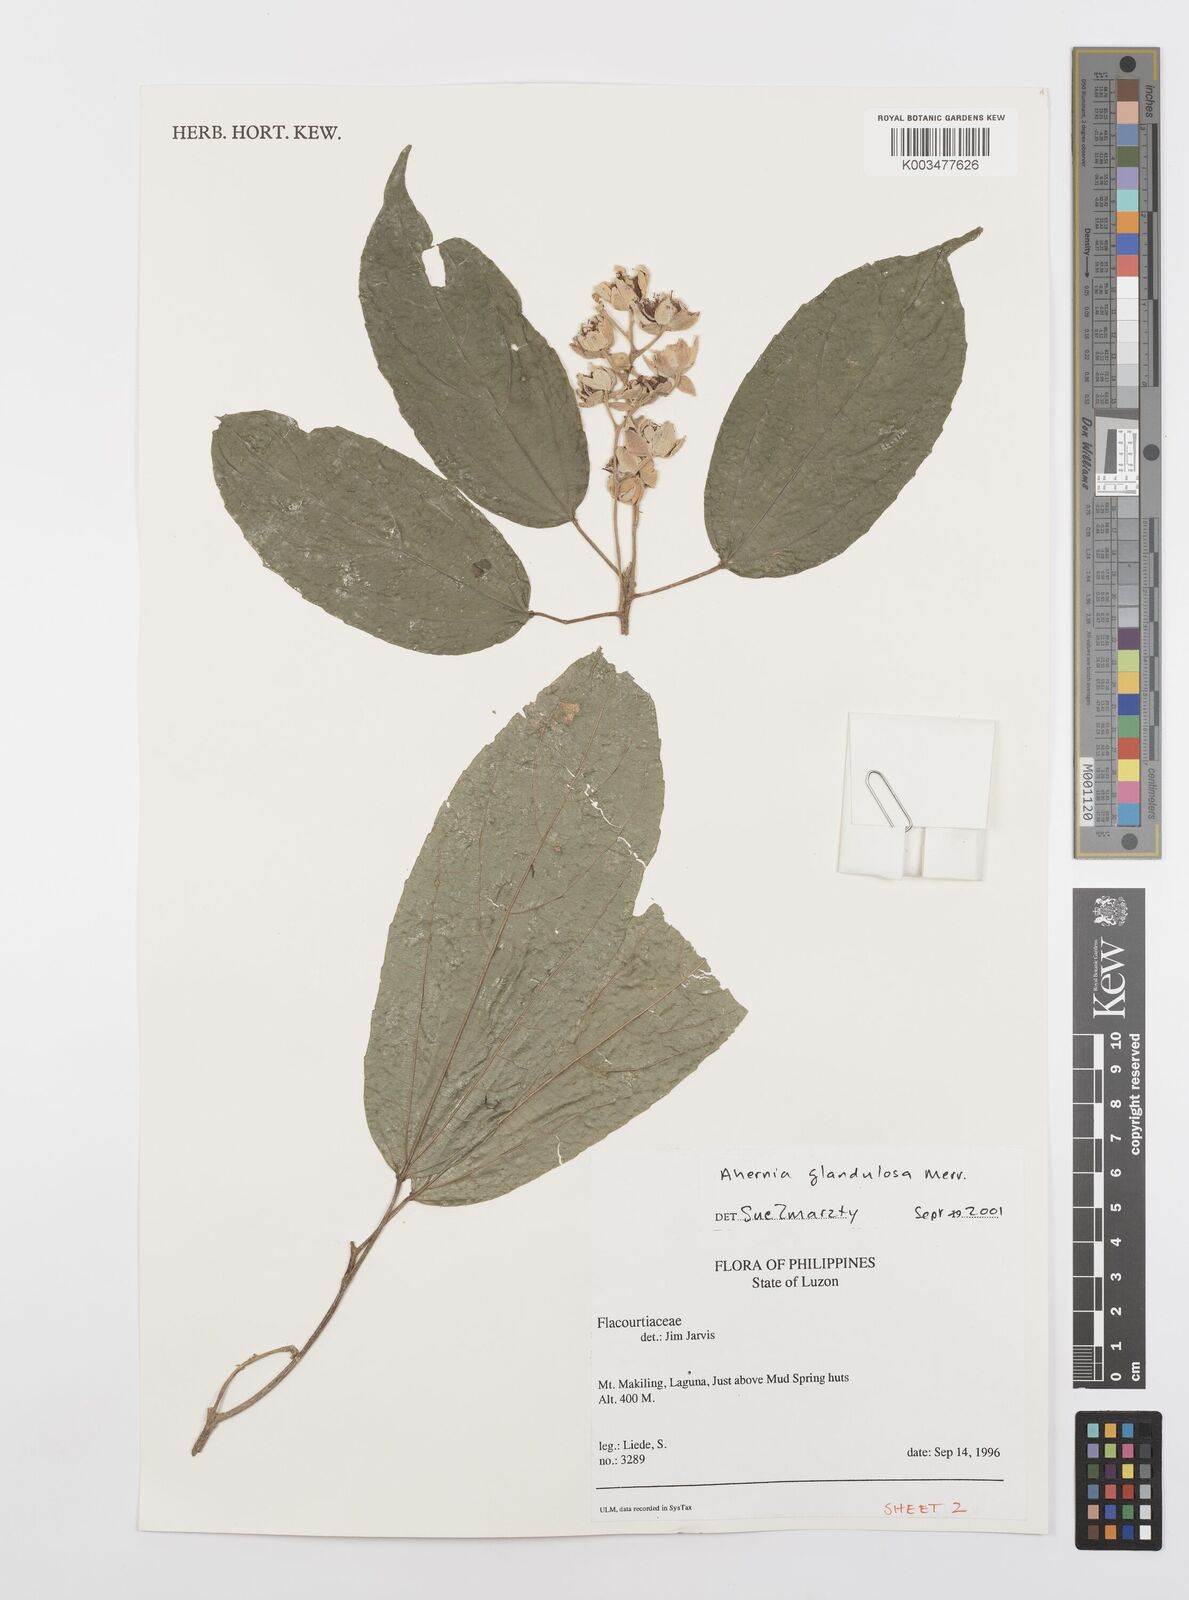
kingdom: Plantae
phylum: Tracheophyta
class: Magnoliopsida
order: Malpighiales
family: Achariaceae
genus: Ahernia
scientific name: Ahernia glandulosa
